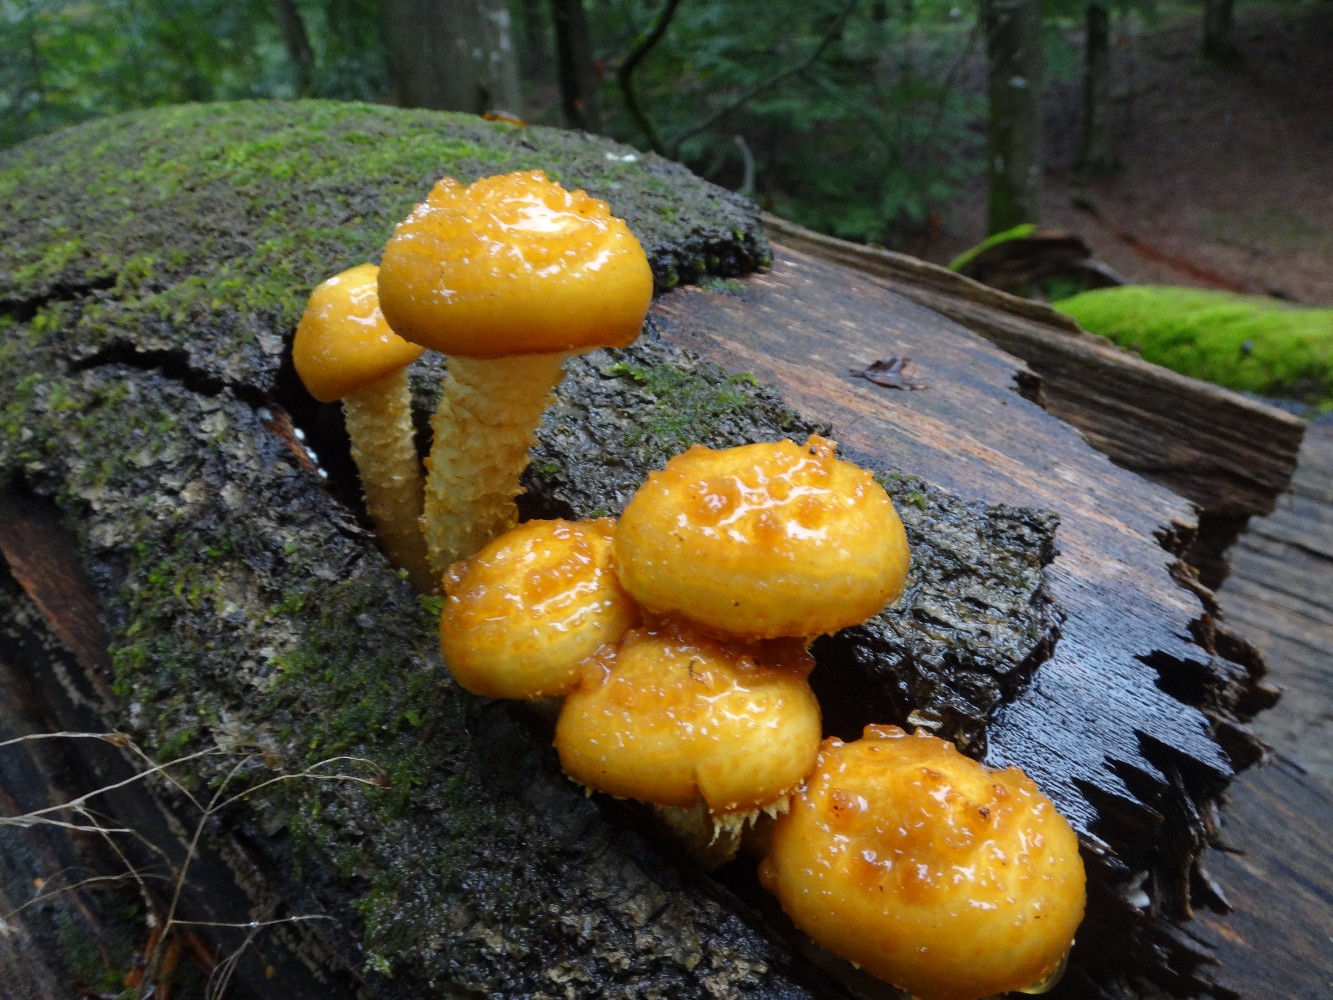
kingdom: Fungi
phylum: Basidiomycota
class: Agaricomycetes
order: Agaricales
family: Strophariaceae
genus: Pholiota
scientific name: Pholiota adiposa
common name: højtsiddende skælhat
